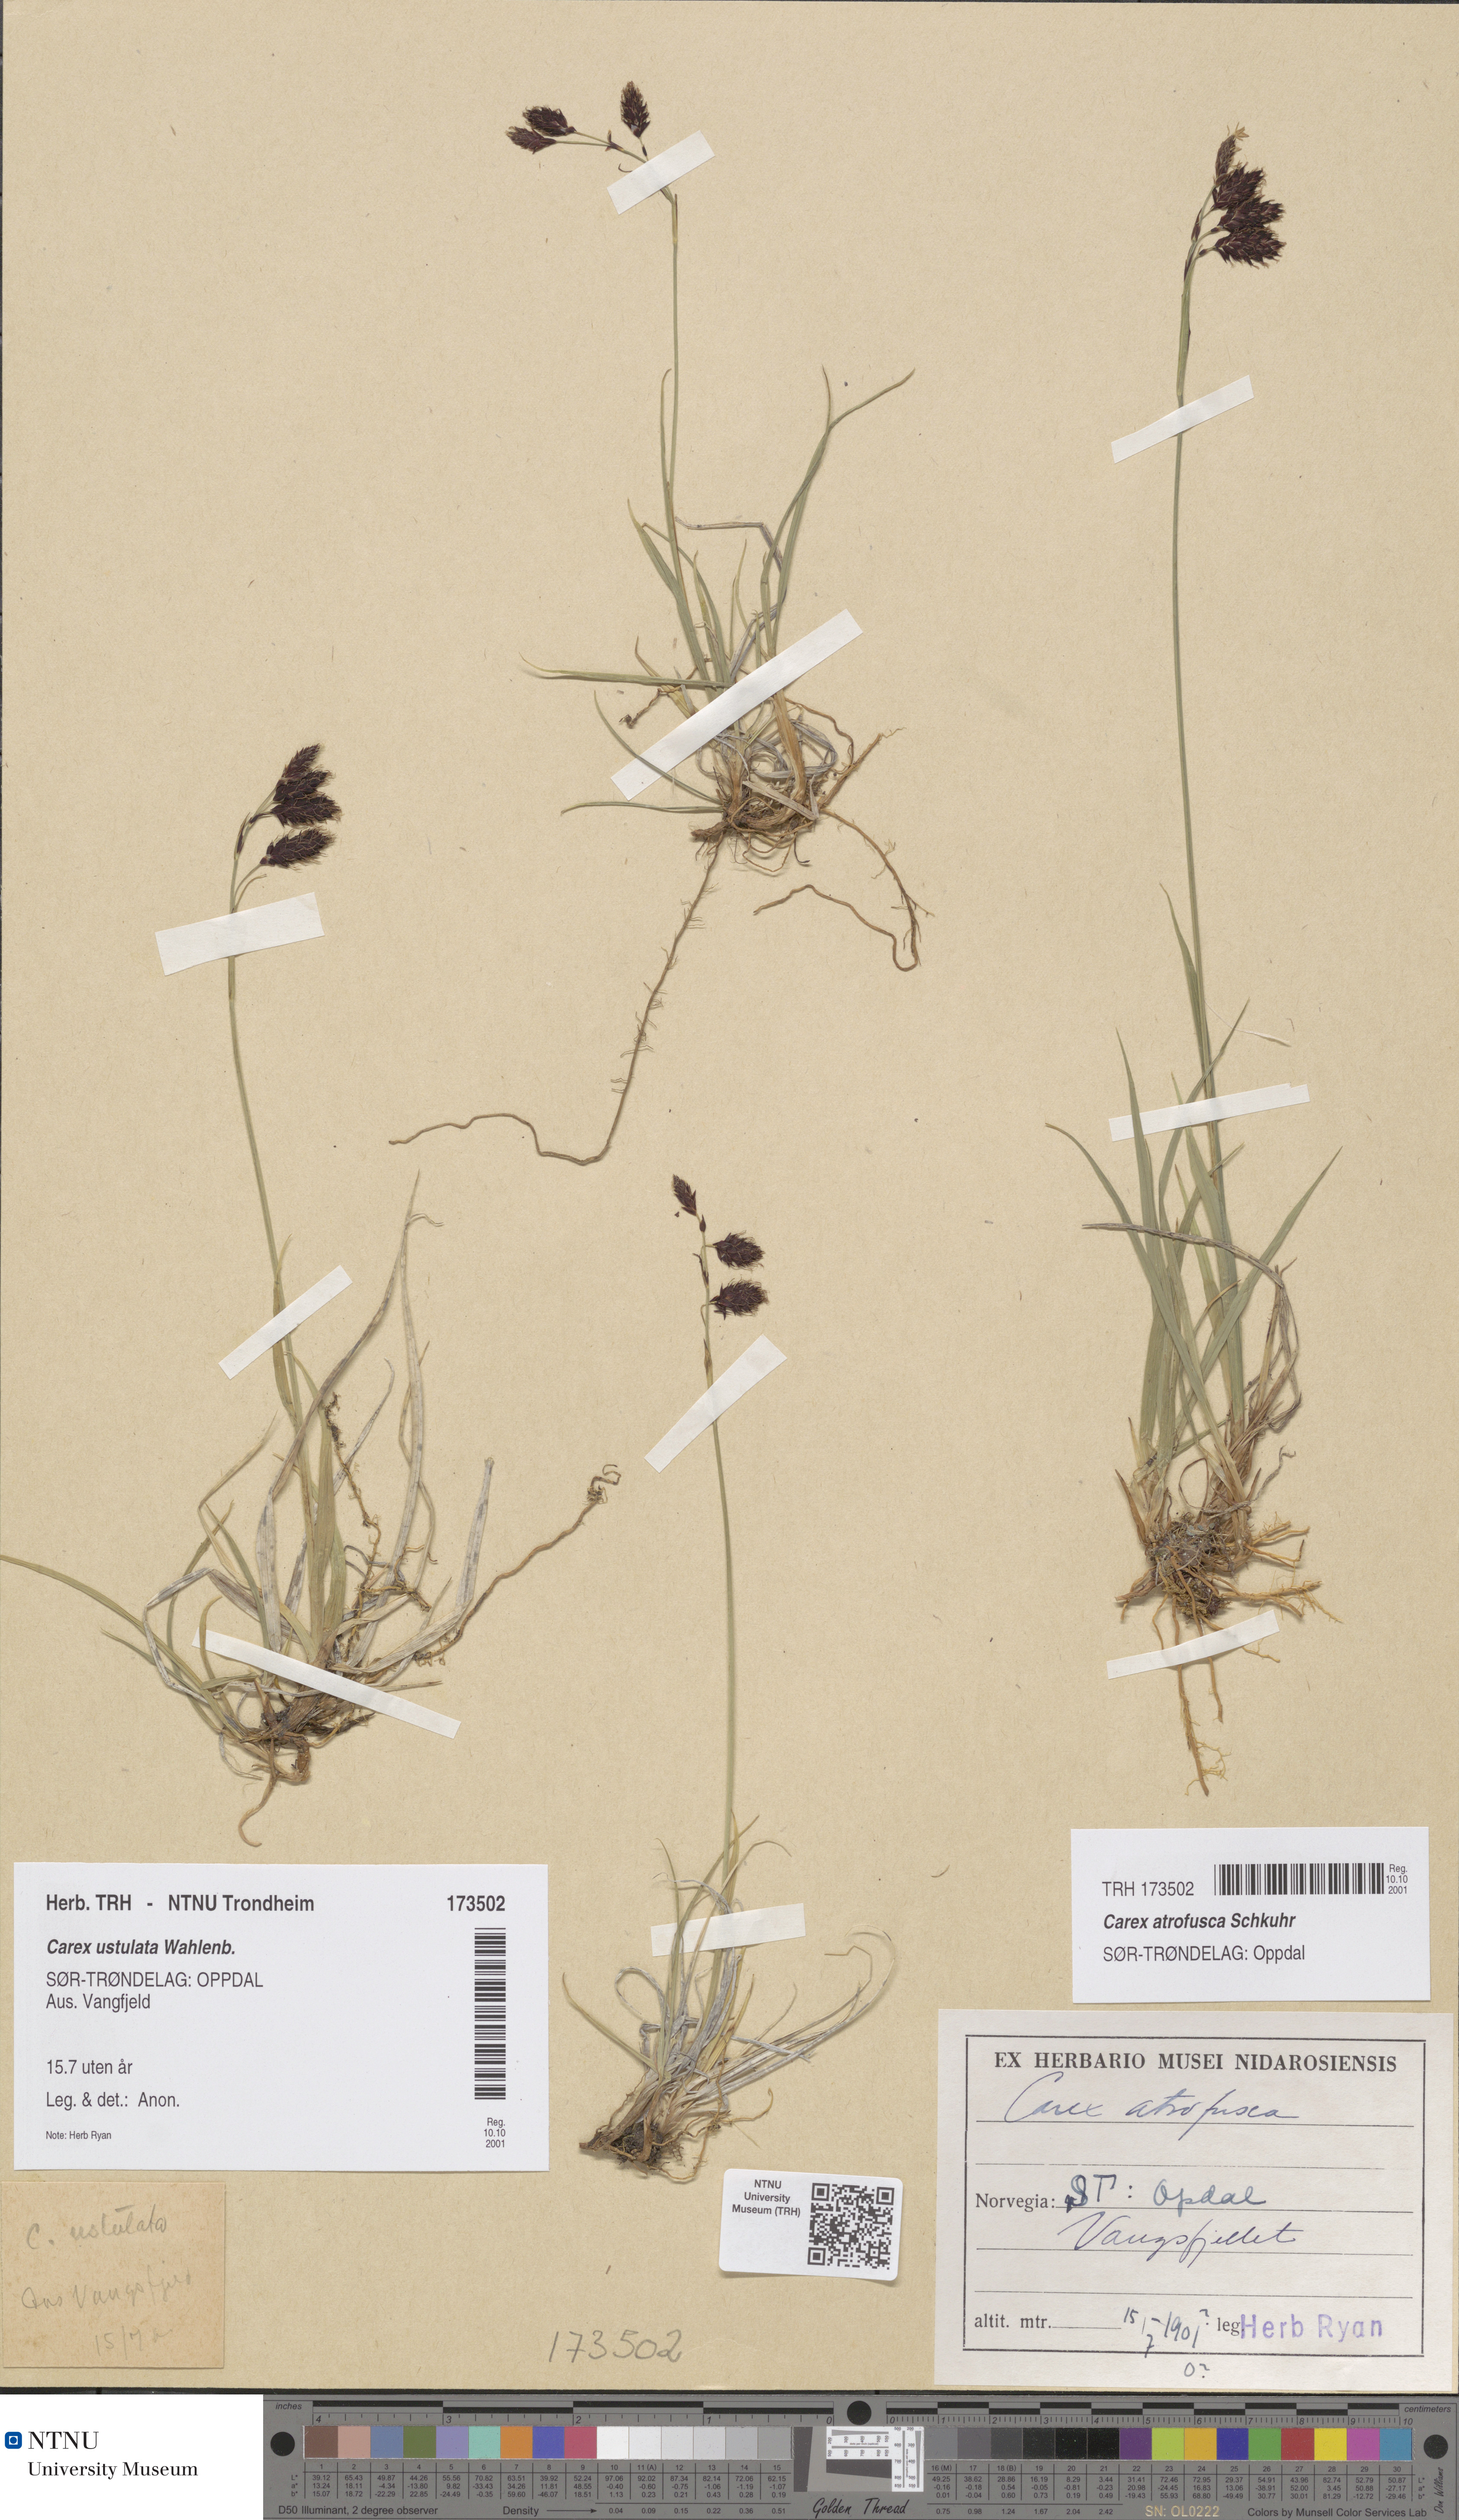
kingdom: Plantae
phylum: Tracheophyta
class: Liliopsida
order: Poales
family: Cyperaceae
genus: Carex
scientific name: Carex atrofusca
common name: Scorched alpine-sedge
